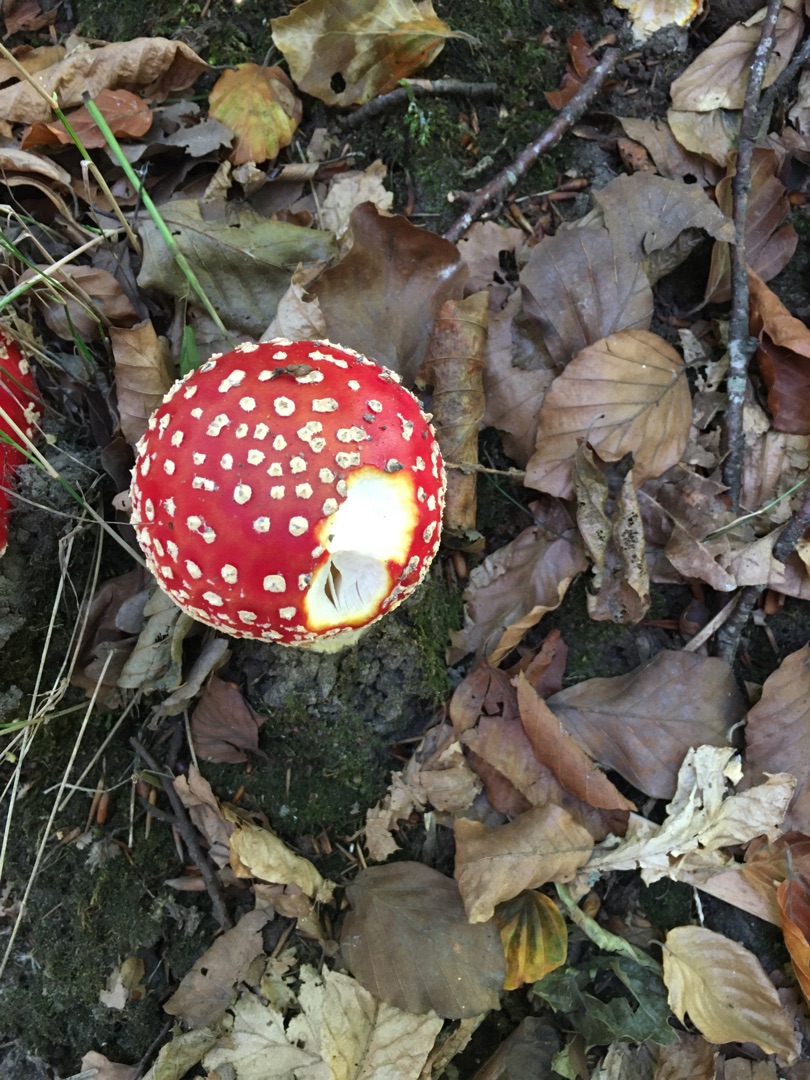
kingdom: Fungi
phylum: Basidiomycota
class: Agaricomycetes
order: Agaricales
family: Amanitaceae
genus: Amanita
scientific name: Amanita muscaria
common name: Rød fluesvamp
